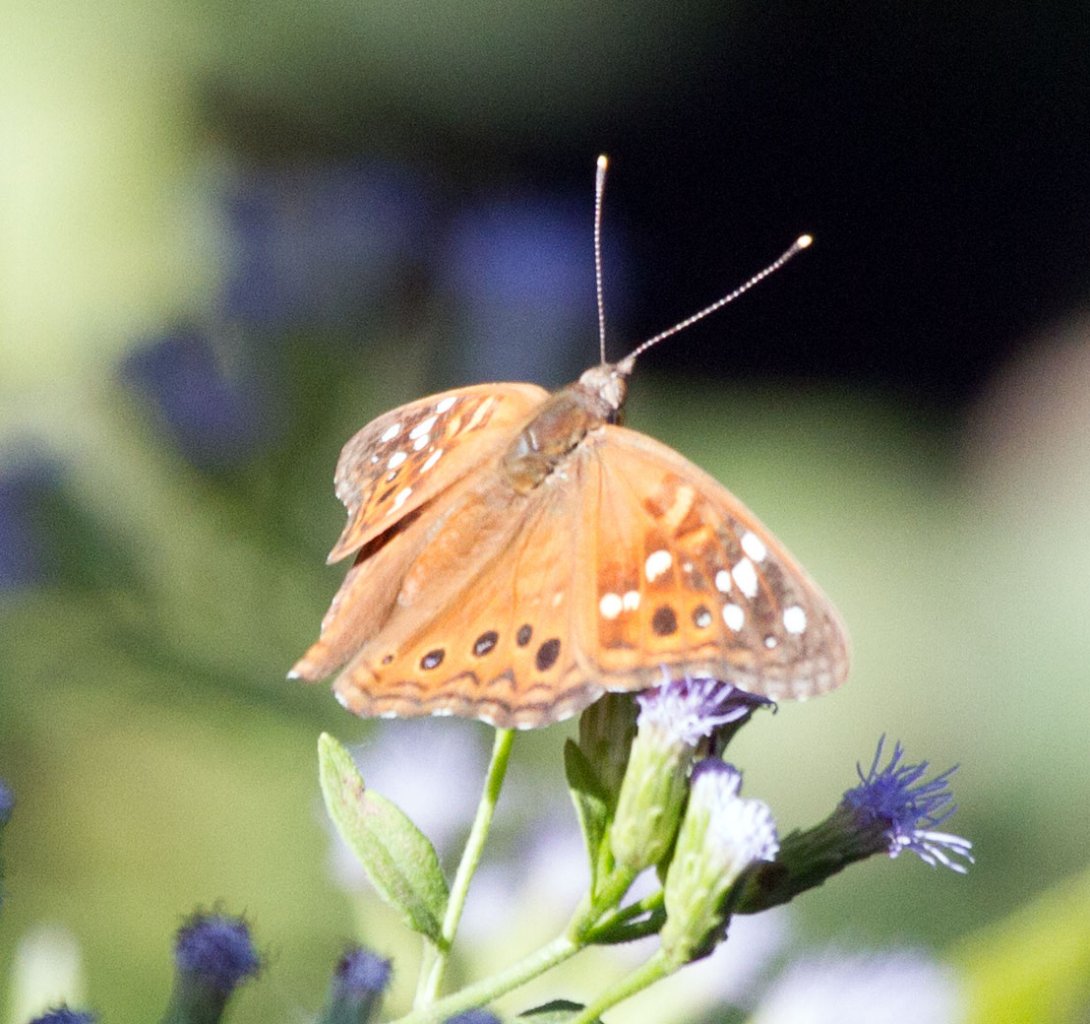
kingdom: Animalia
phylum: Arthropoda
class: Insecta
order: Lepidoptera
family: Nymphalidae
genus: Asterocampa
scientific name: Asterocampa clyton
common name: Tawny Emperor
